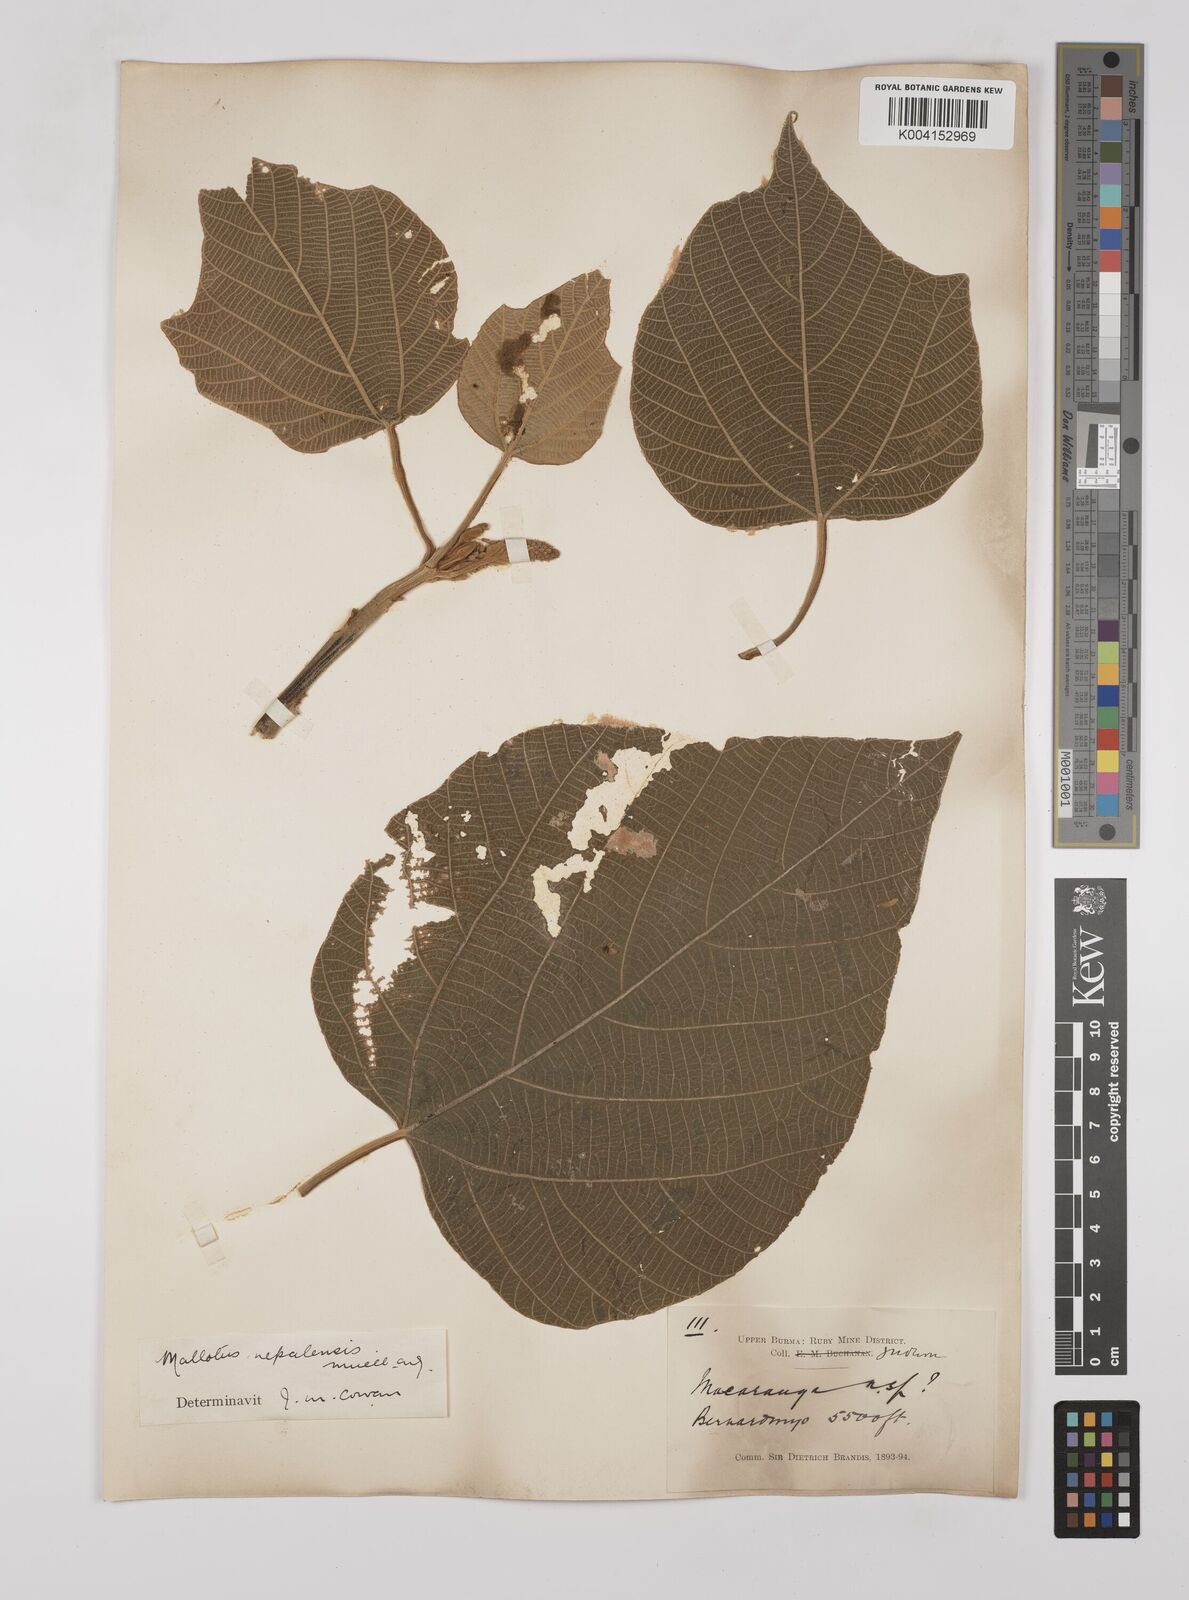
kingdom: Plantae
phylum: Tracheophyta
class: Magnoliopsida
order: Malpighiales
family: Euphorbiaceae
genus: Mallotus
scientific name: Mallotus nepalensis
